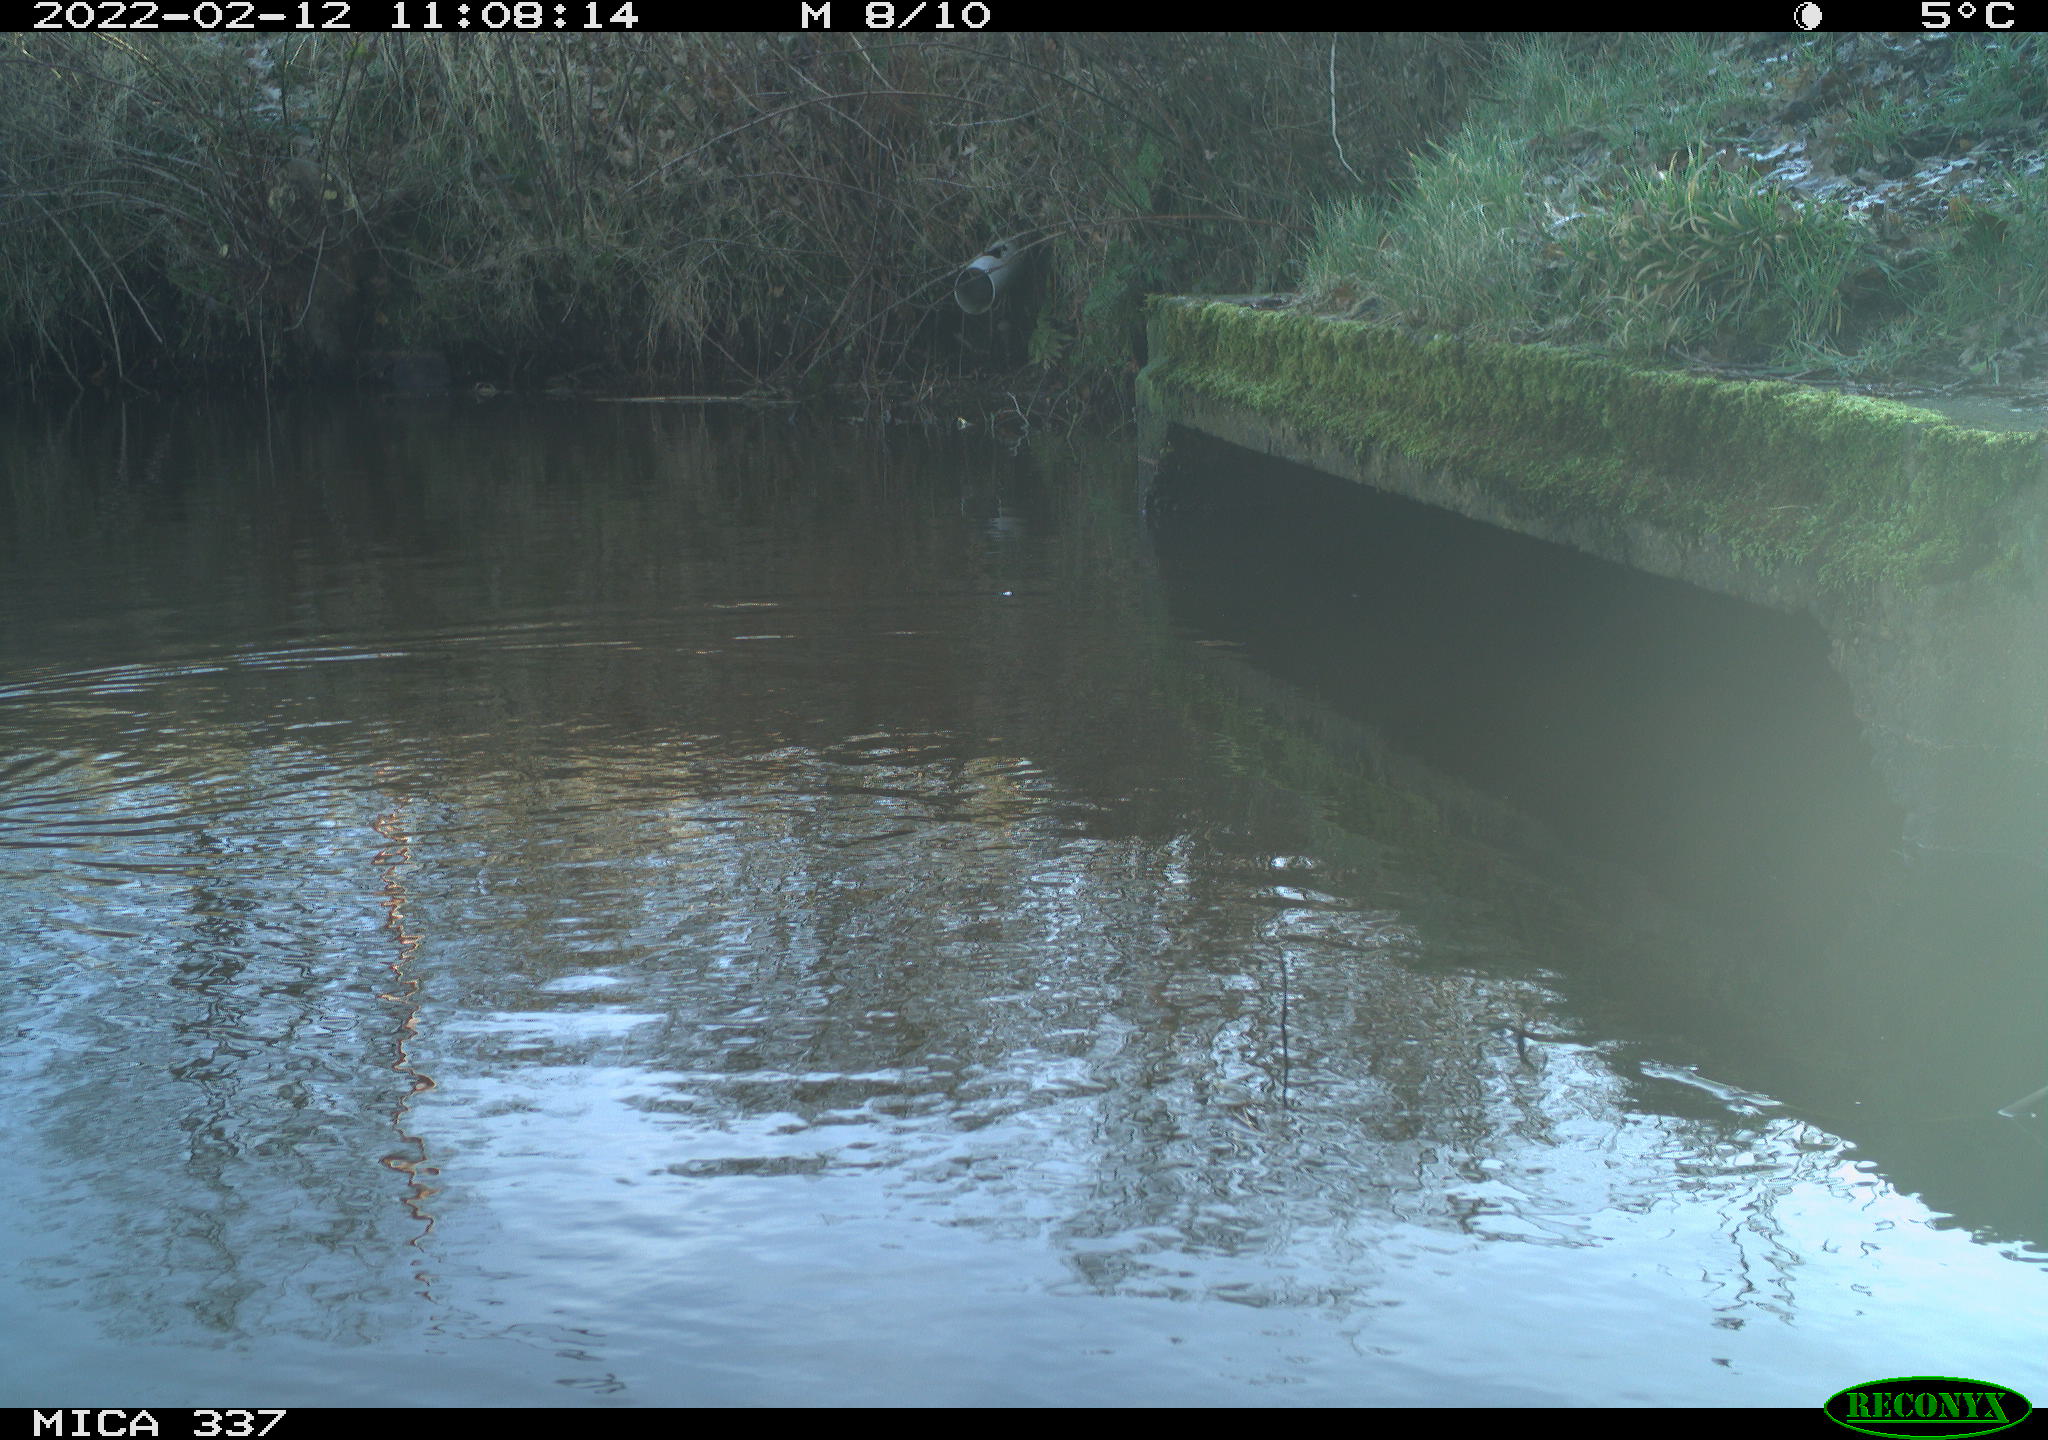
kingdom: Animalia
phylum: Chordata
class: Aves
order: Gruiformes
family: Rallidae
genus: Gallinula
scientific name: Gallinula chloropus
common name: Common moorhen
